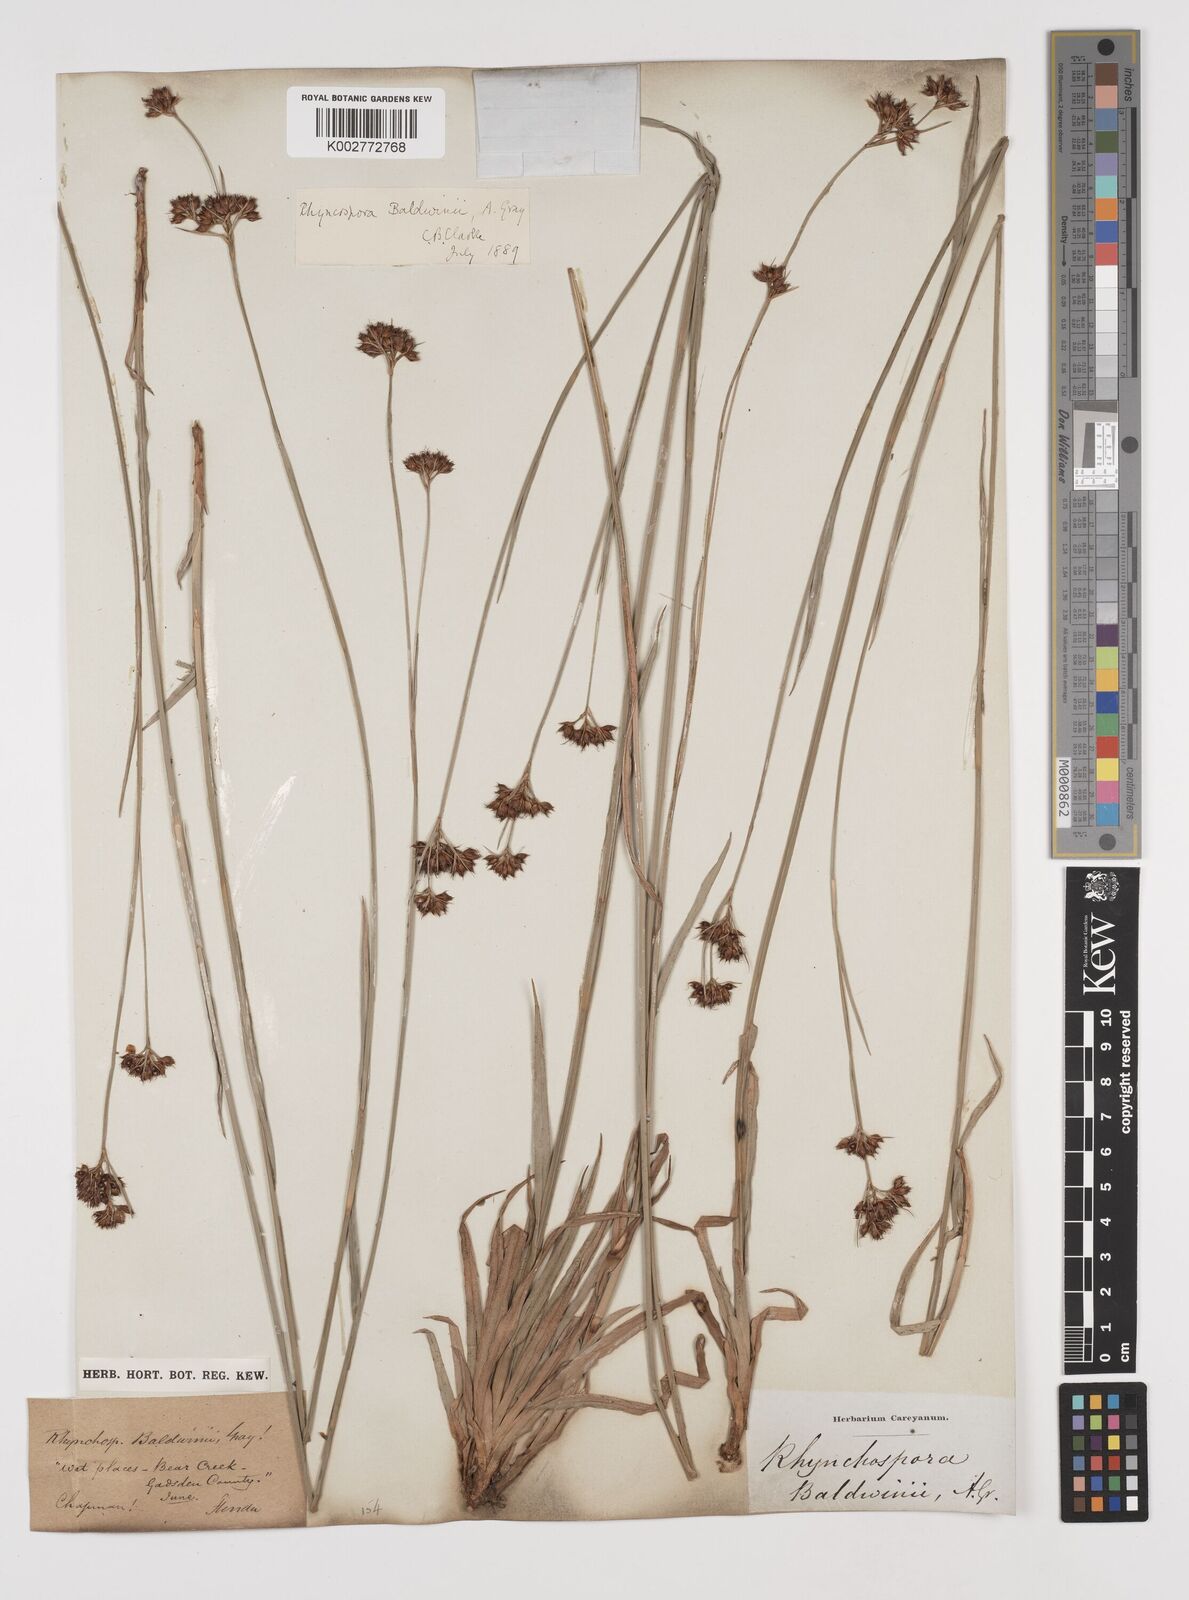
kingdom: Plantae
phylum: Tracheophyta
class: Liliopsida
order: Poales
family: Cyperaceae
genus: Rhynchospora
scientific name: Rhynchospora baldwinii
